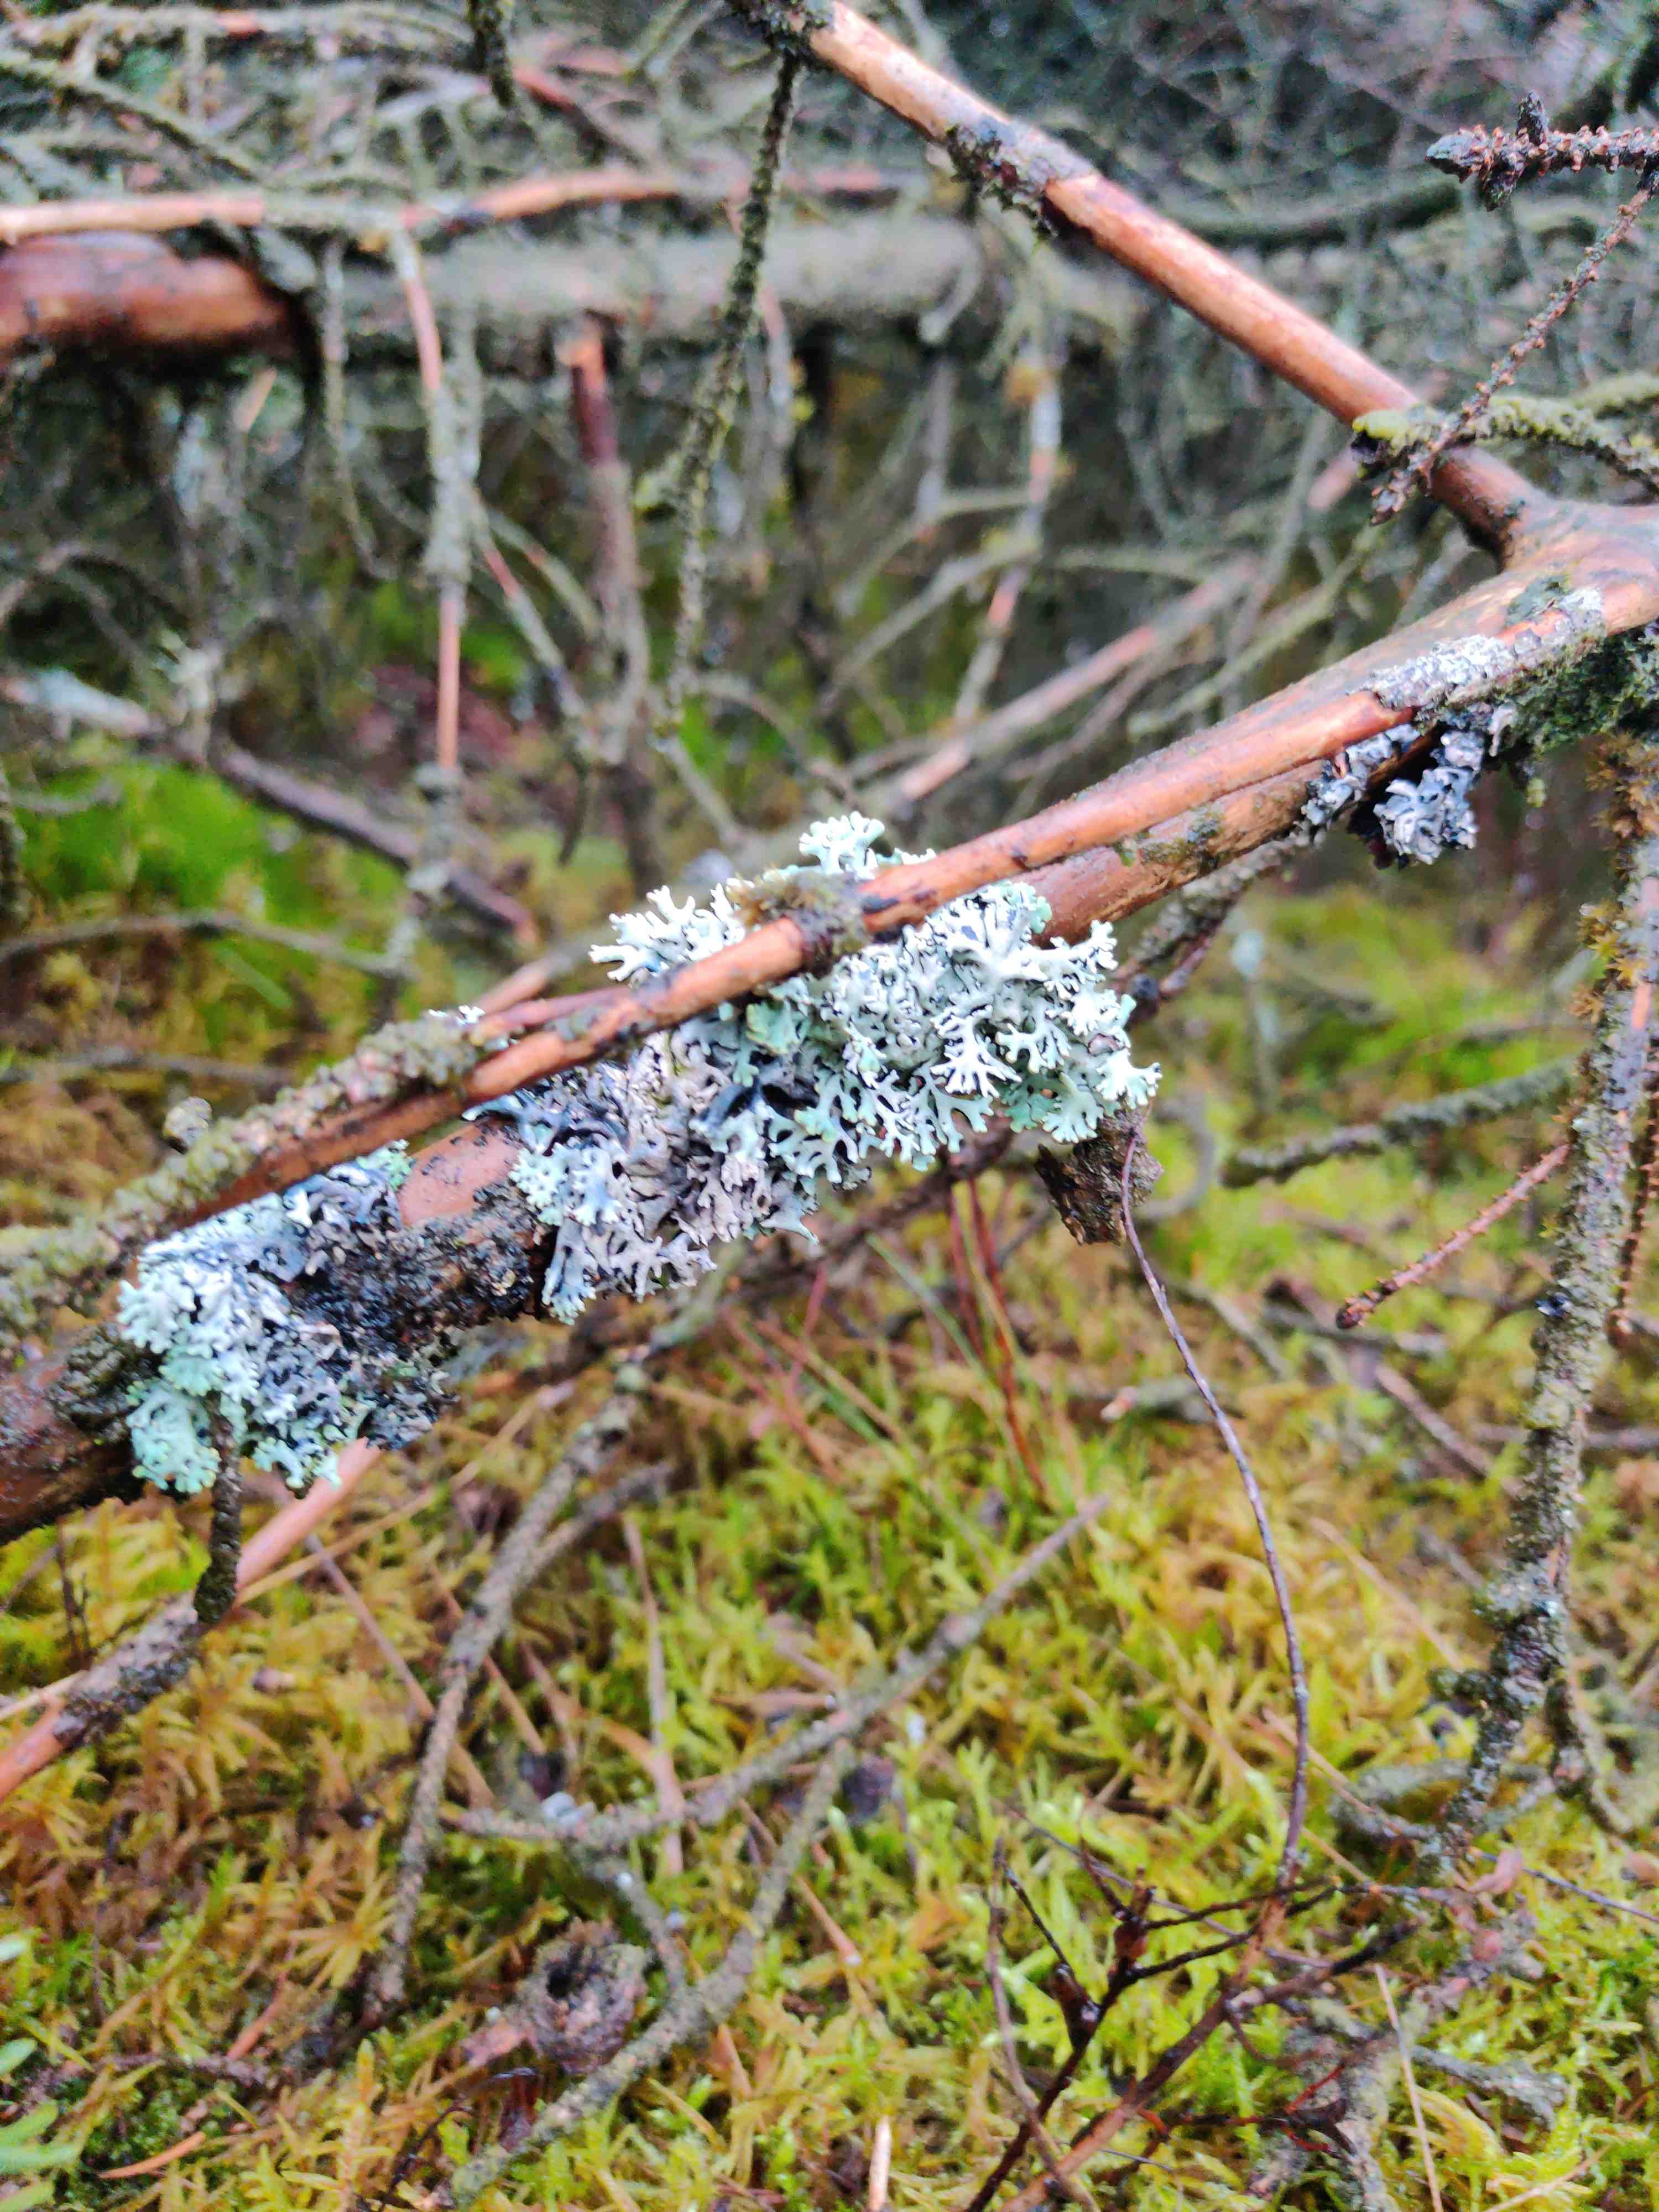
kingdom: Fungi
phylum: Ascomycota
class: Lecanoromycetes
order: Lecanorales
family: Parmeliaceae
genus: Hypogymnia
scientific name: Hypogymnia physodes
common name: almindelig kvistlav
